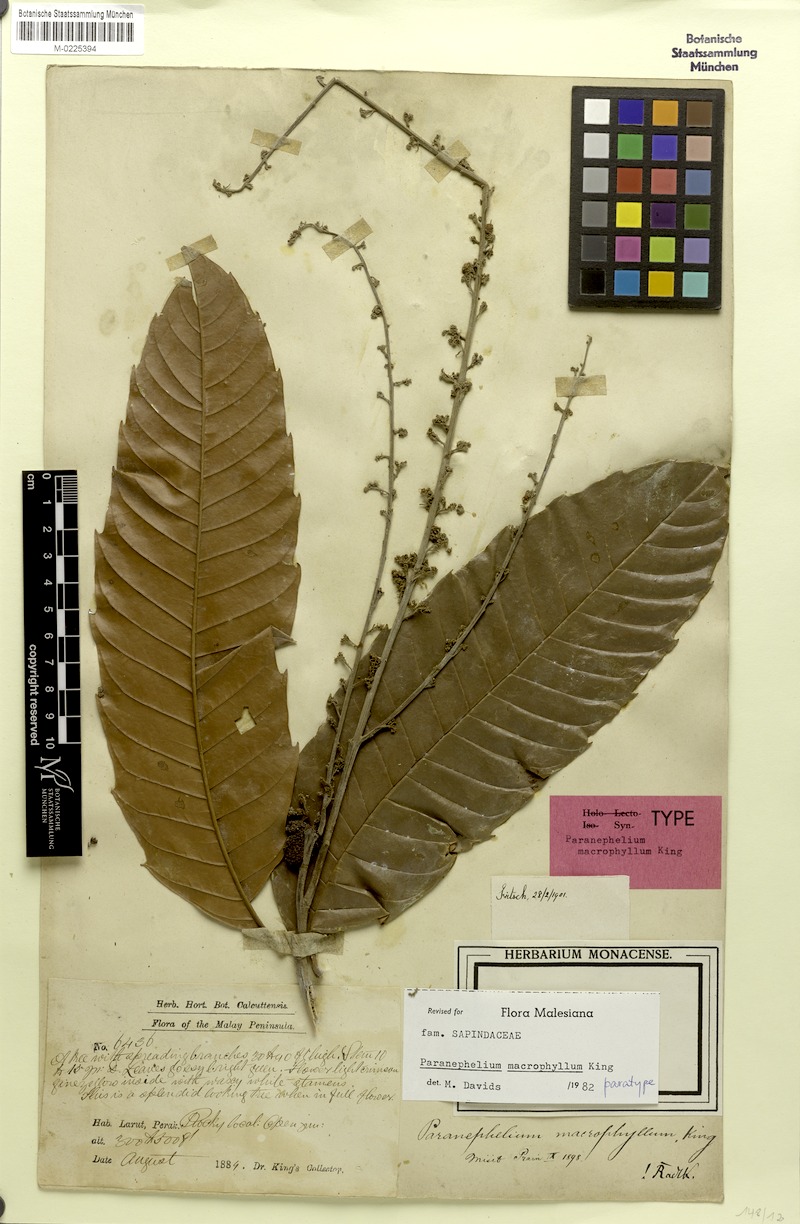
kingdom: Plantae
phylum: Tracheophyta
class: Magnoliopsida
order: Sapindales
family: Sapindaceae
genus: Paranephelium
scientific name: Paranephelium macrophyllum
